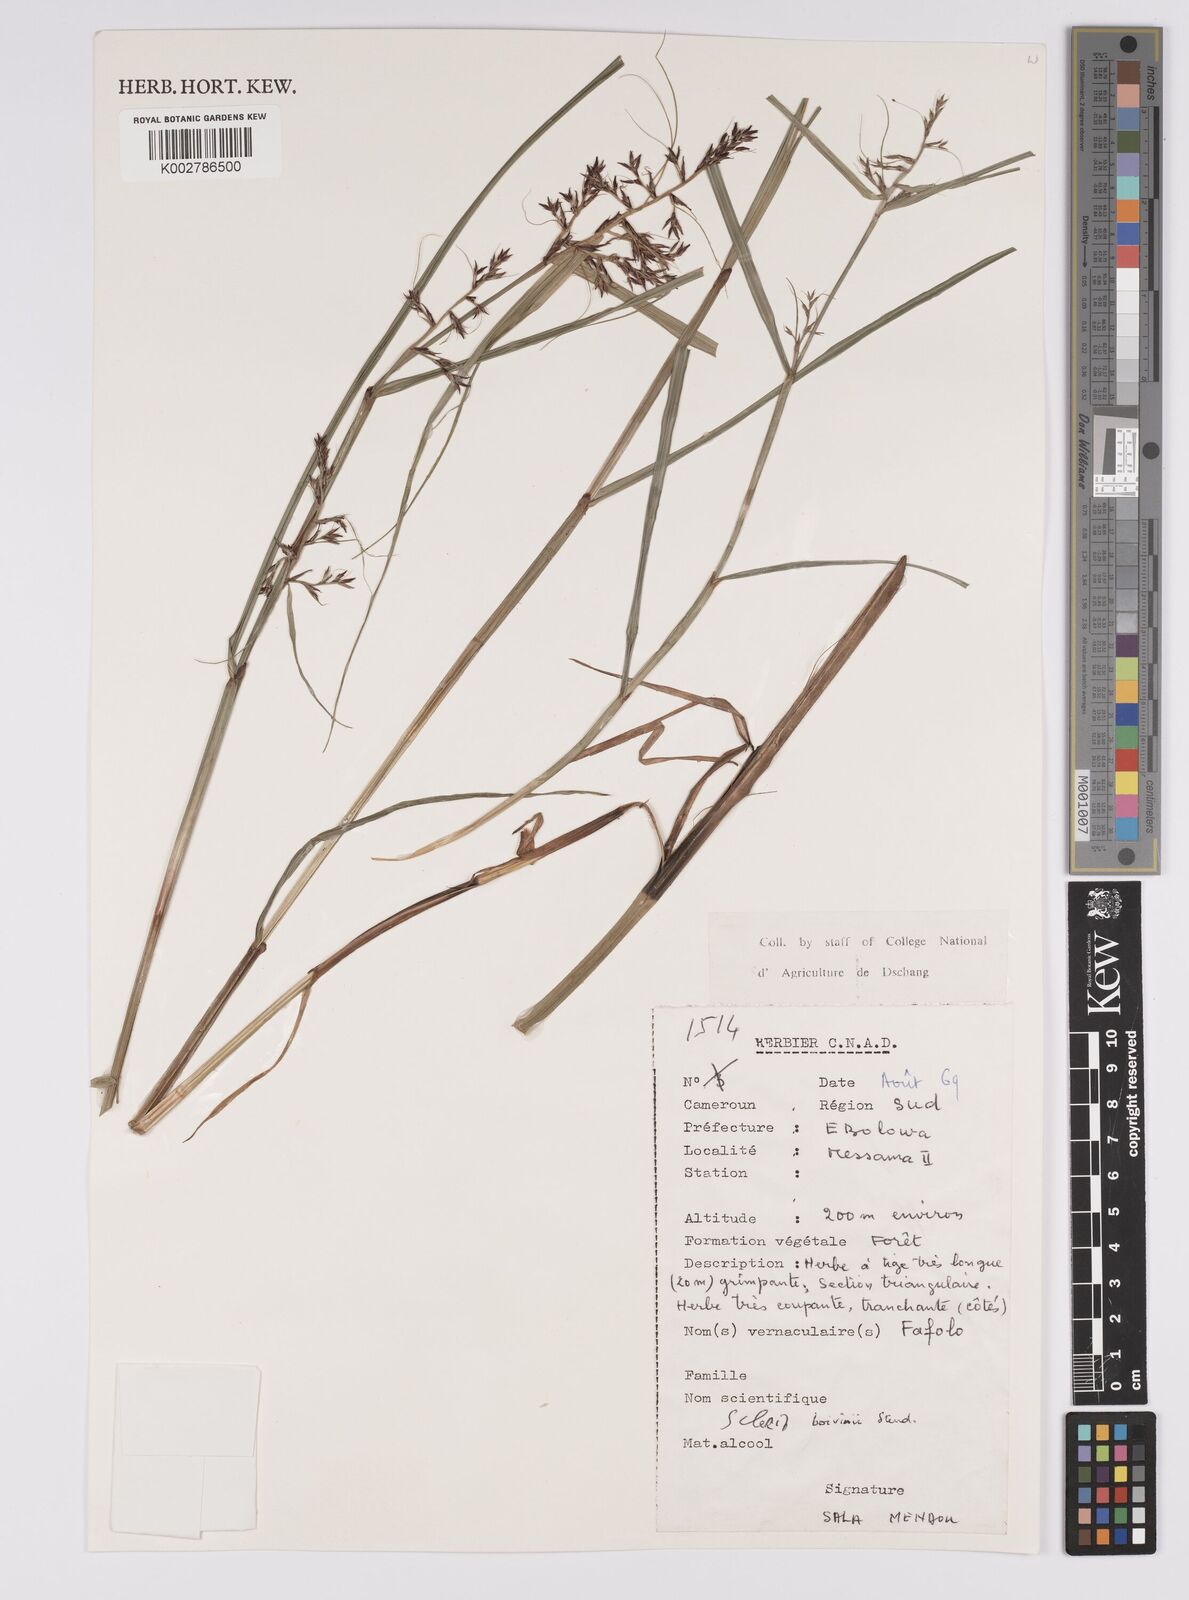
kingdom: Plantae
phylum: Tracheophyta
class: Liliopsida
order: Poales
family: Cyperaceae
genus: Scleria
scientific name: Scleria boivinii
